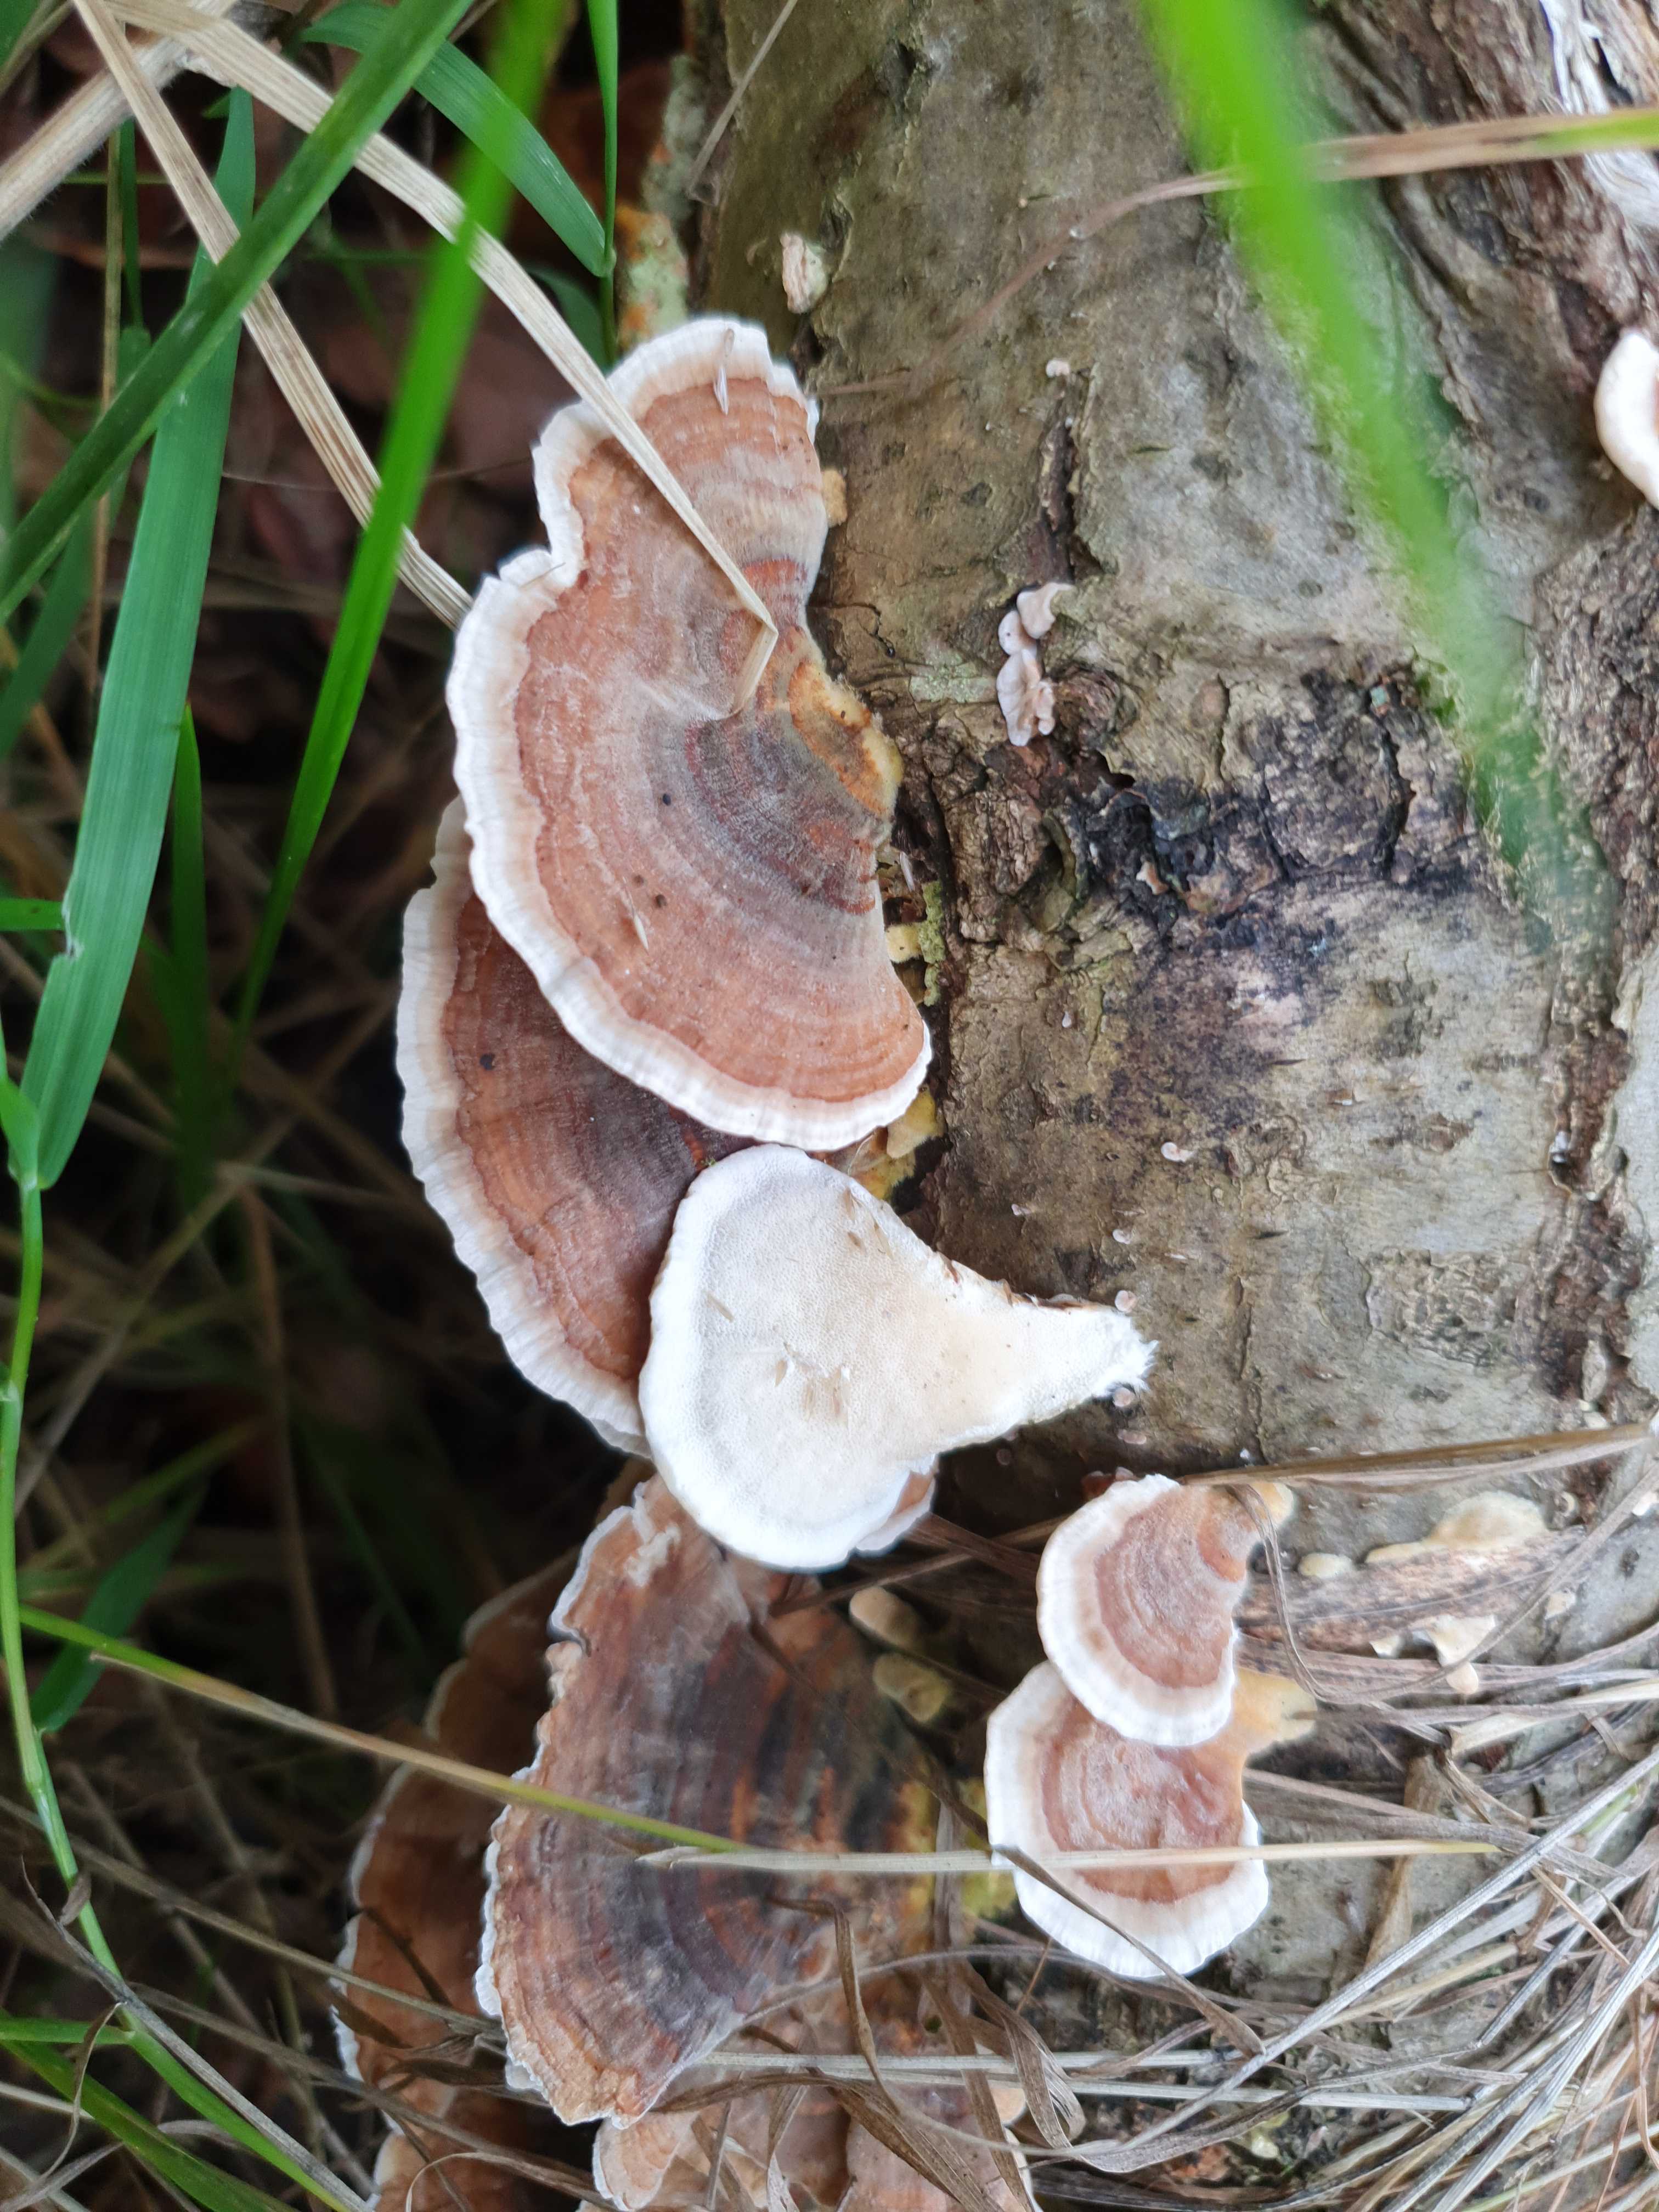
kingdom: Fungi
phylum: Basidiomycota
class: Agaricomycetes
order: Polyporales
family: Polyporaceae
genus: Trametes
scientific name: Trametes versicolor
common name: broget læderporesvamp
